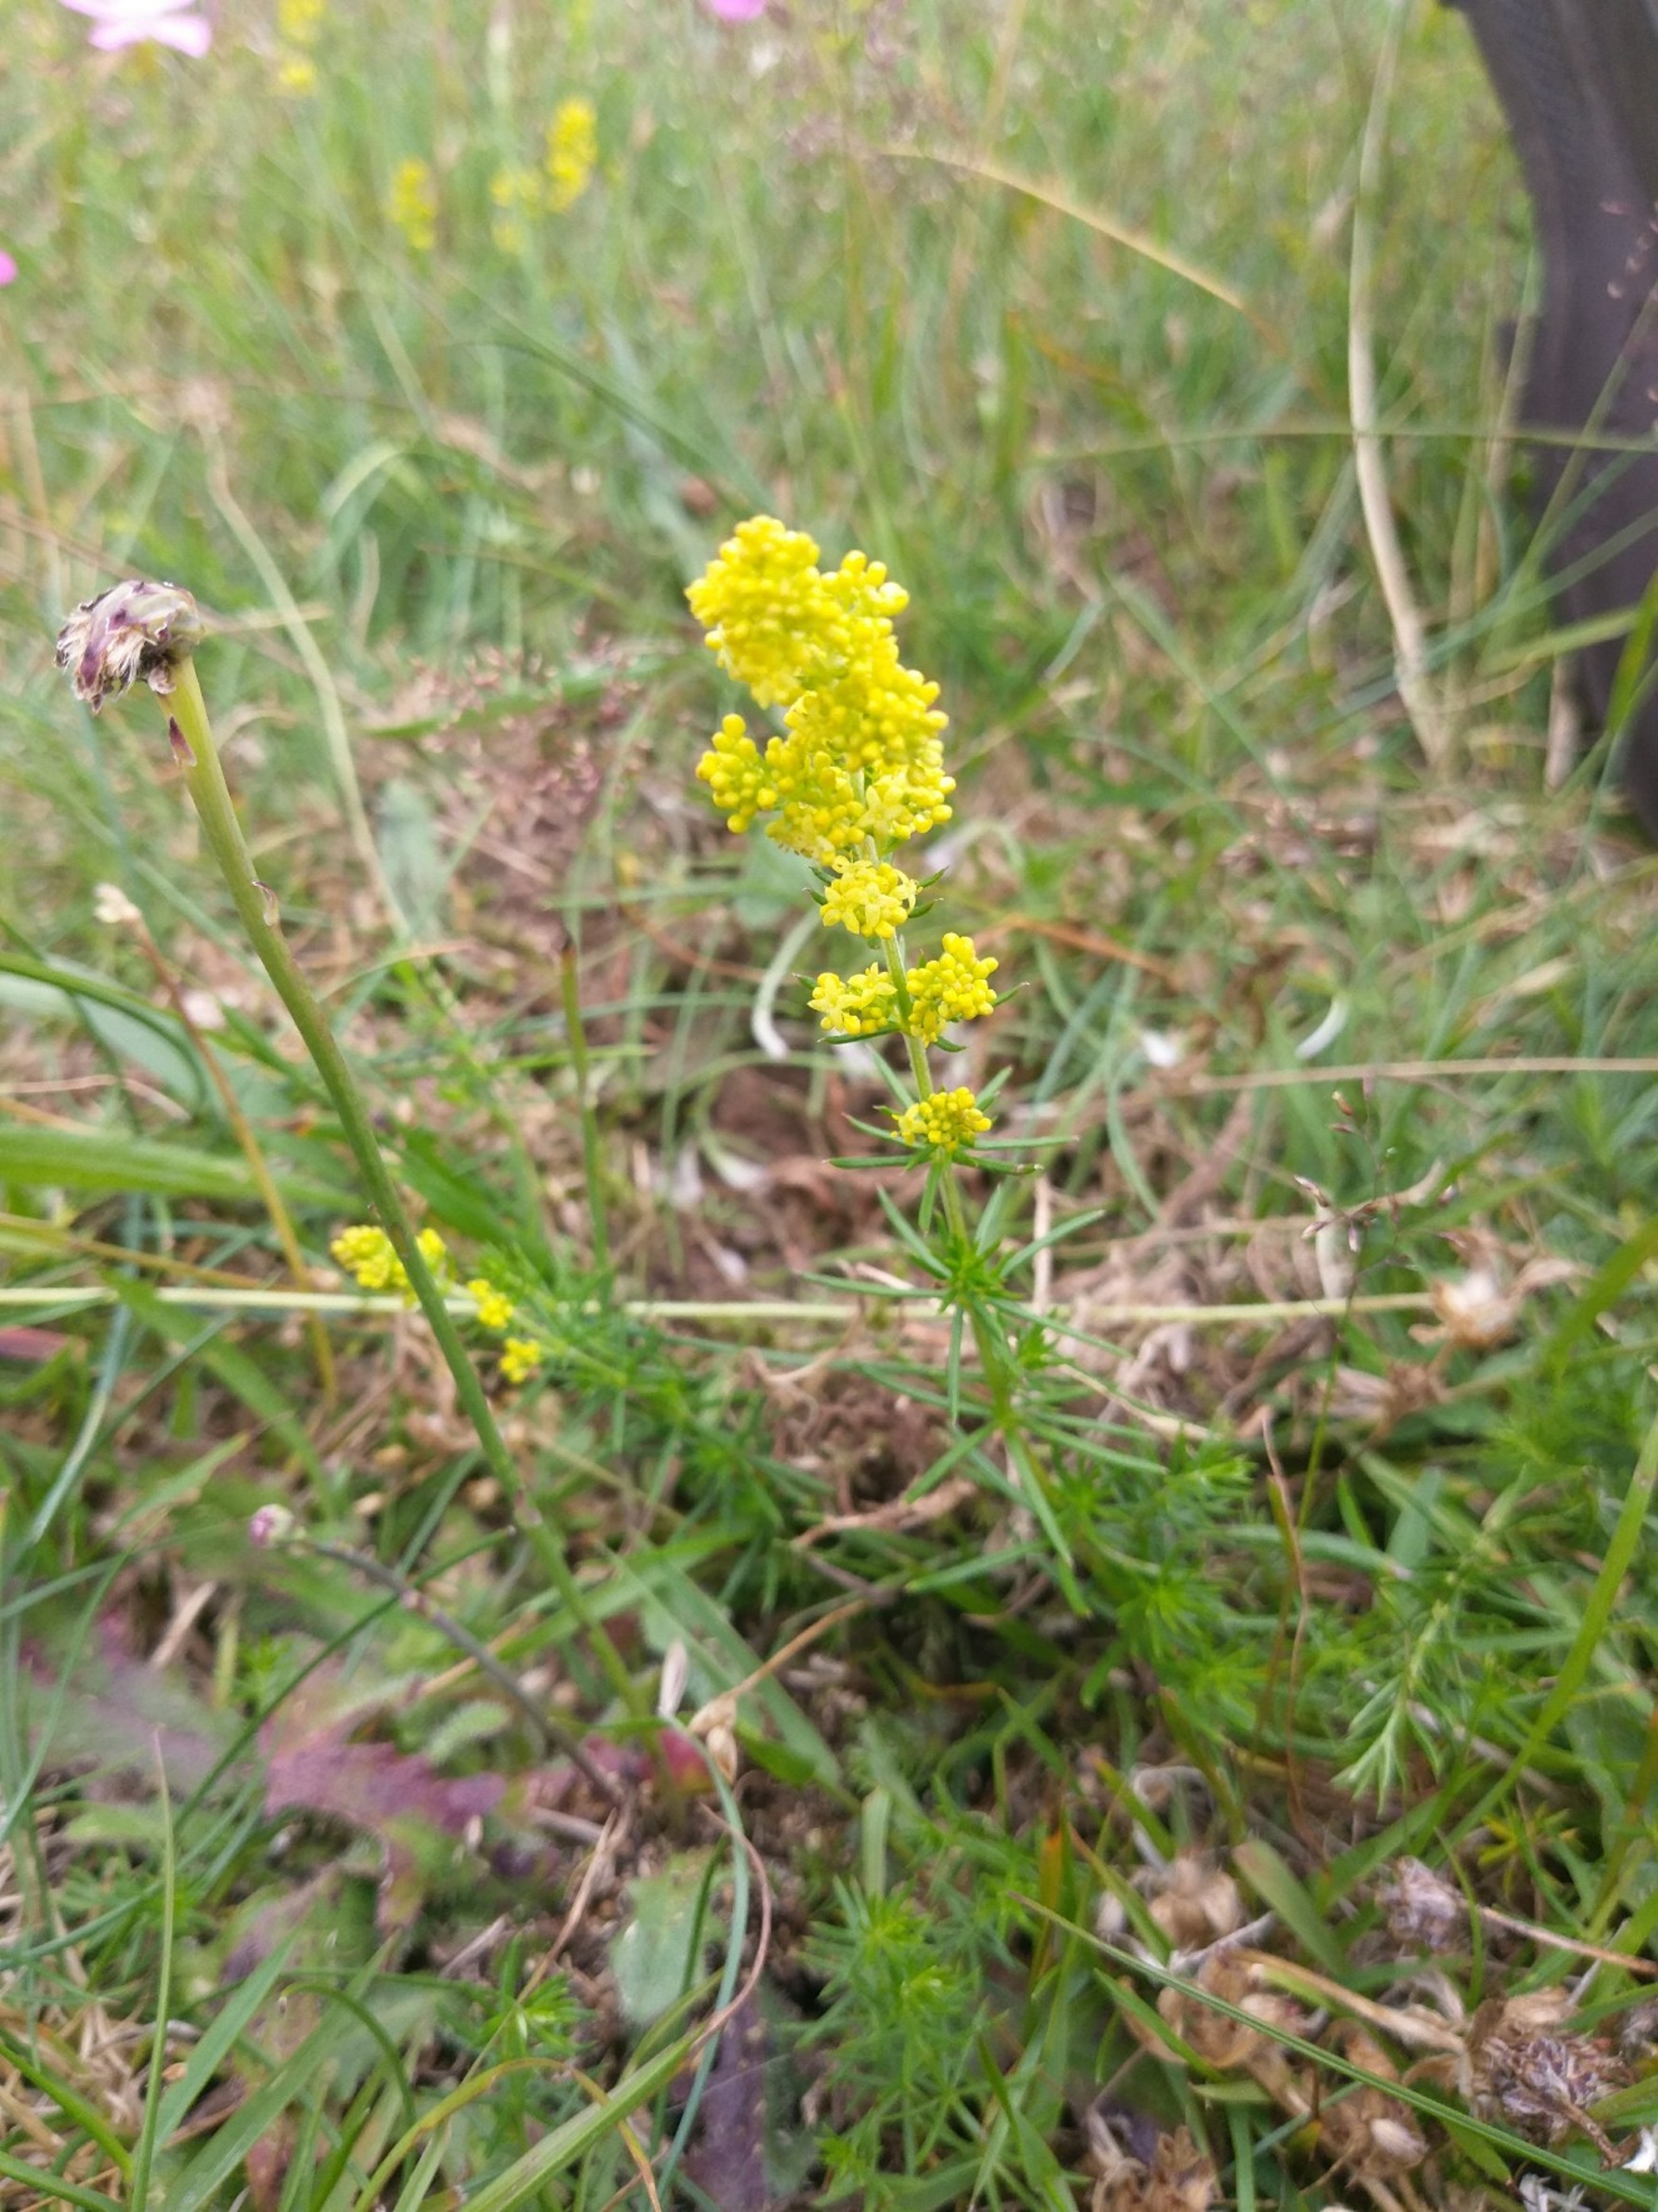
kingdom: Plantae
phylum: Tracheophyta
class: Magnoliopsida
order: Gentianales
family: Rubiaceae
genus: Galium
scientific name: Galium verum
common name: Gul snerre
